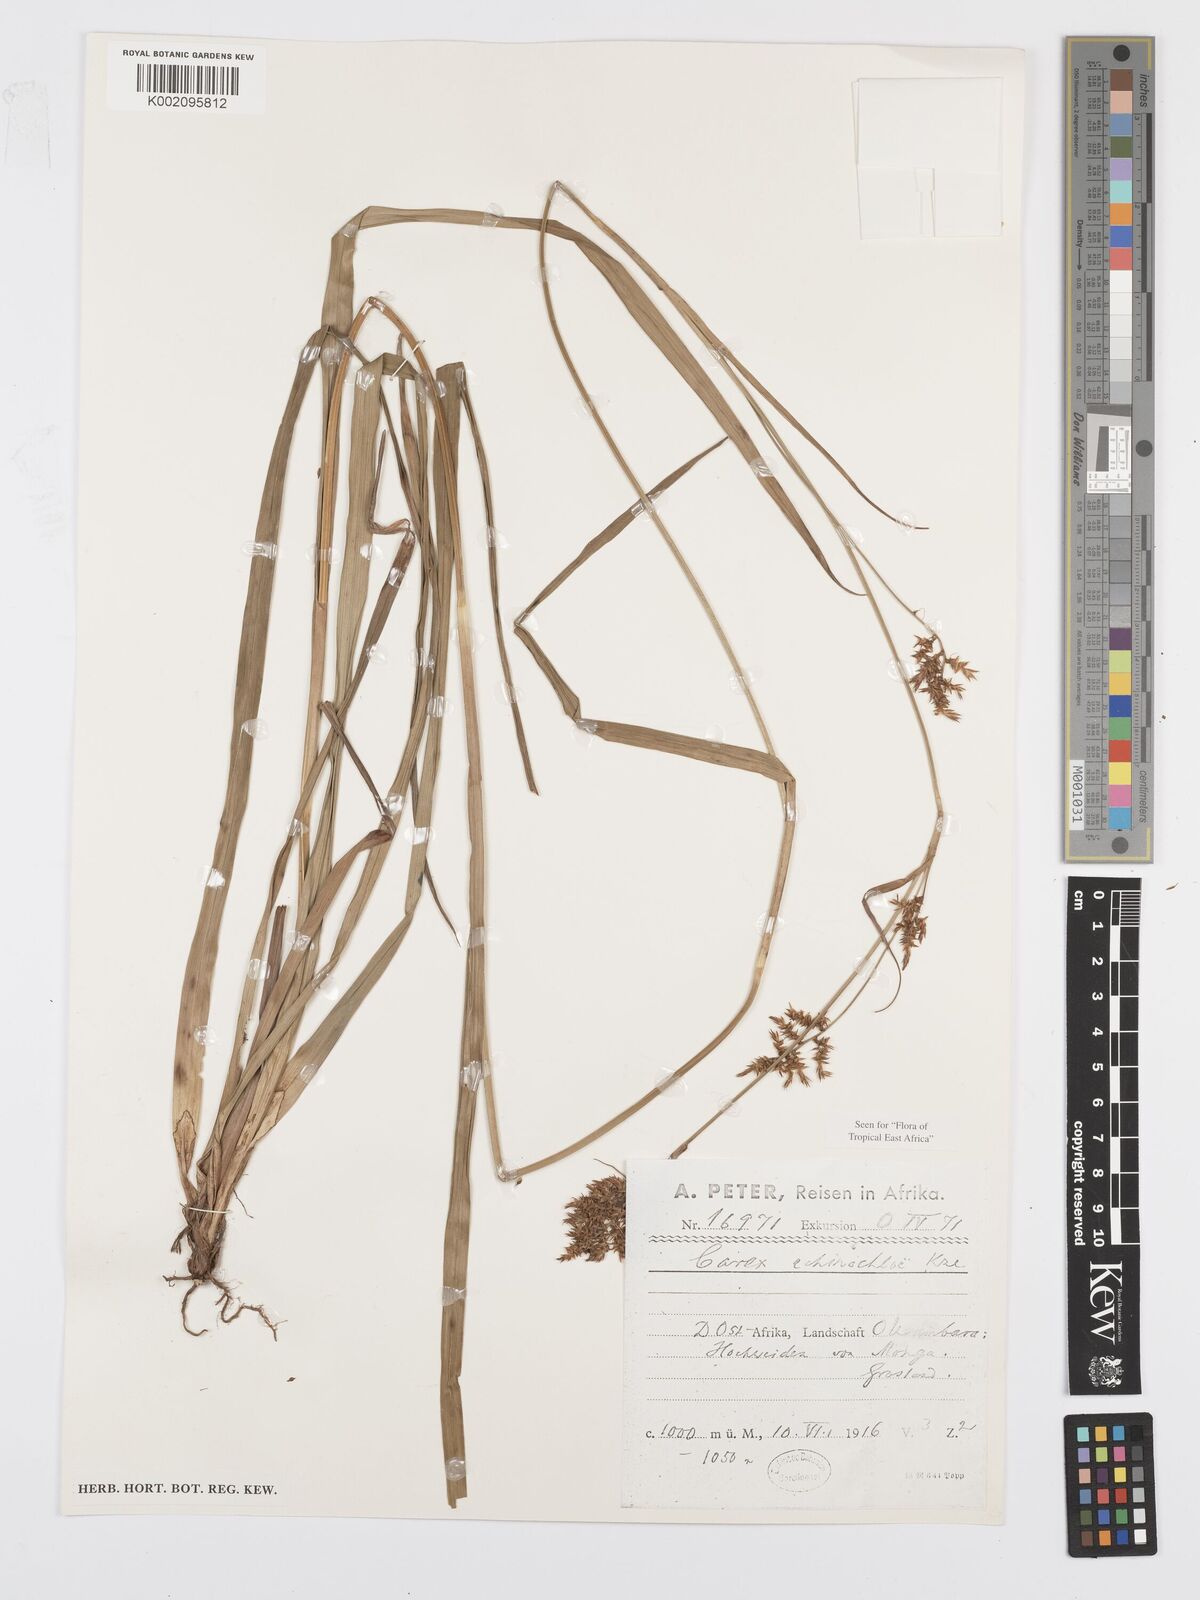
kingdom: Plantae
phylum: Tracheophyta
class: Liliopsida
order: Poales
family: Cyperaceae
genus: Carex
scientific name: Carex echinochloe
